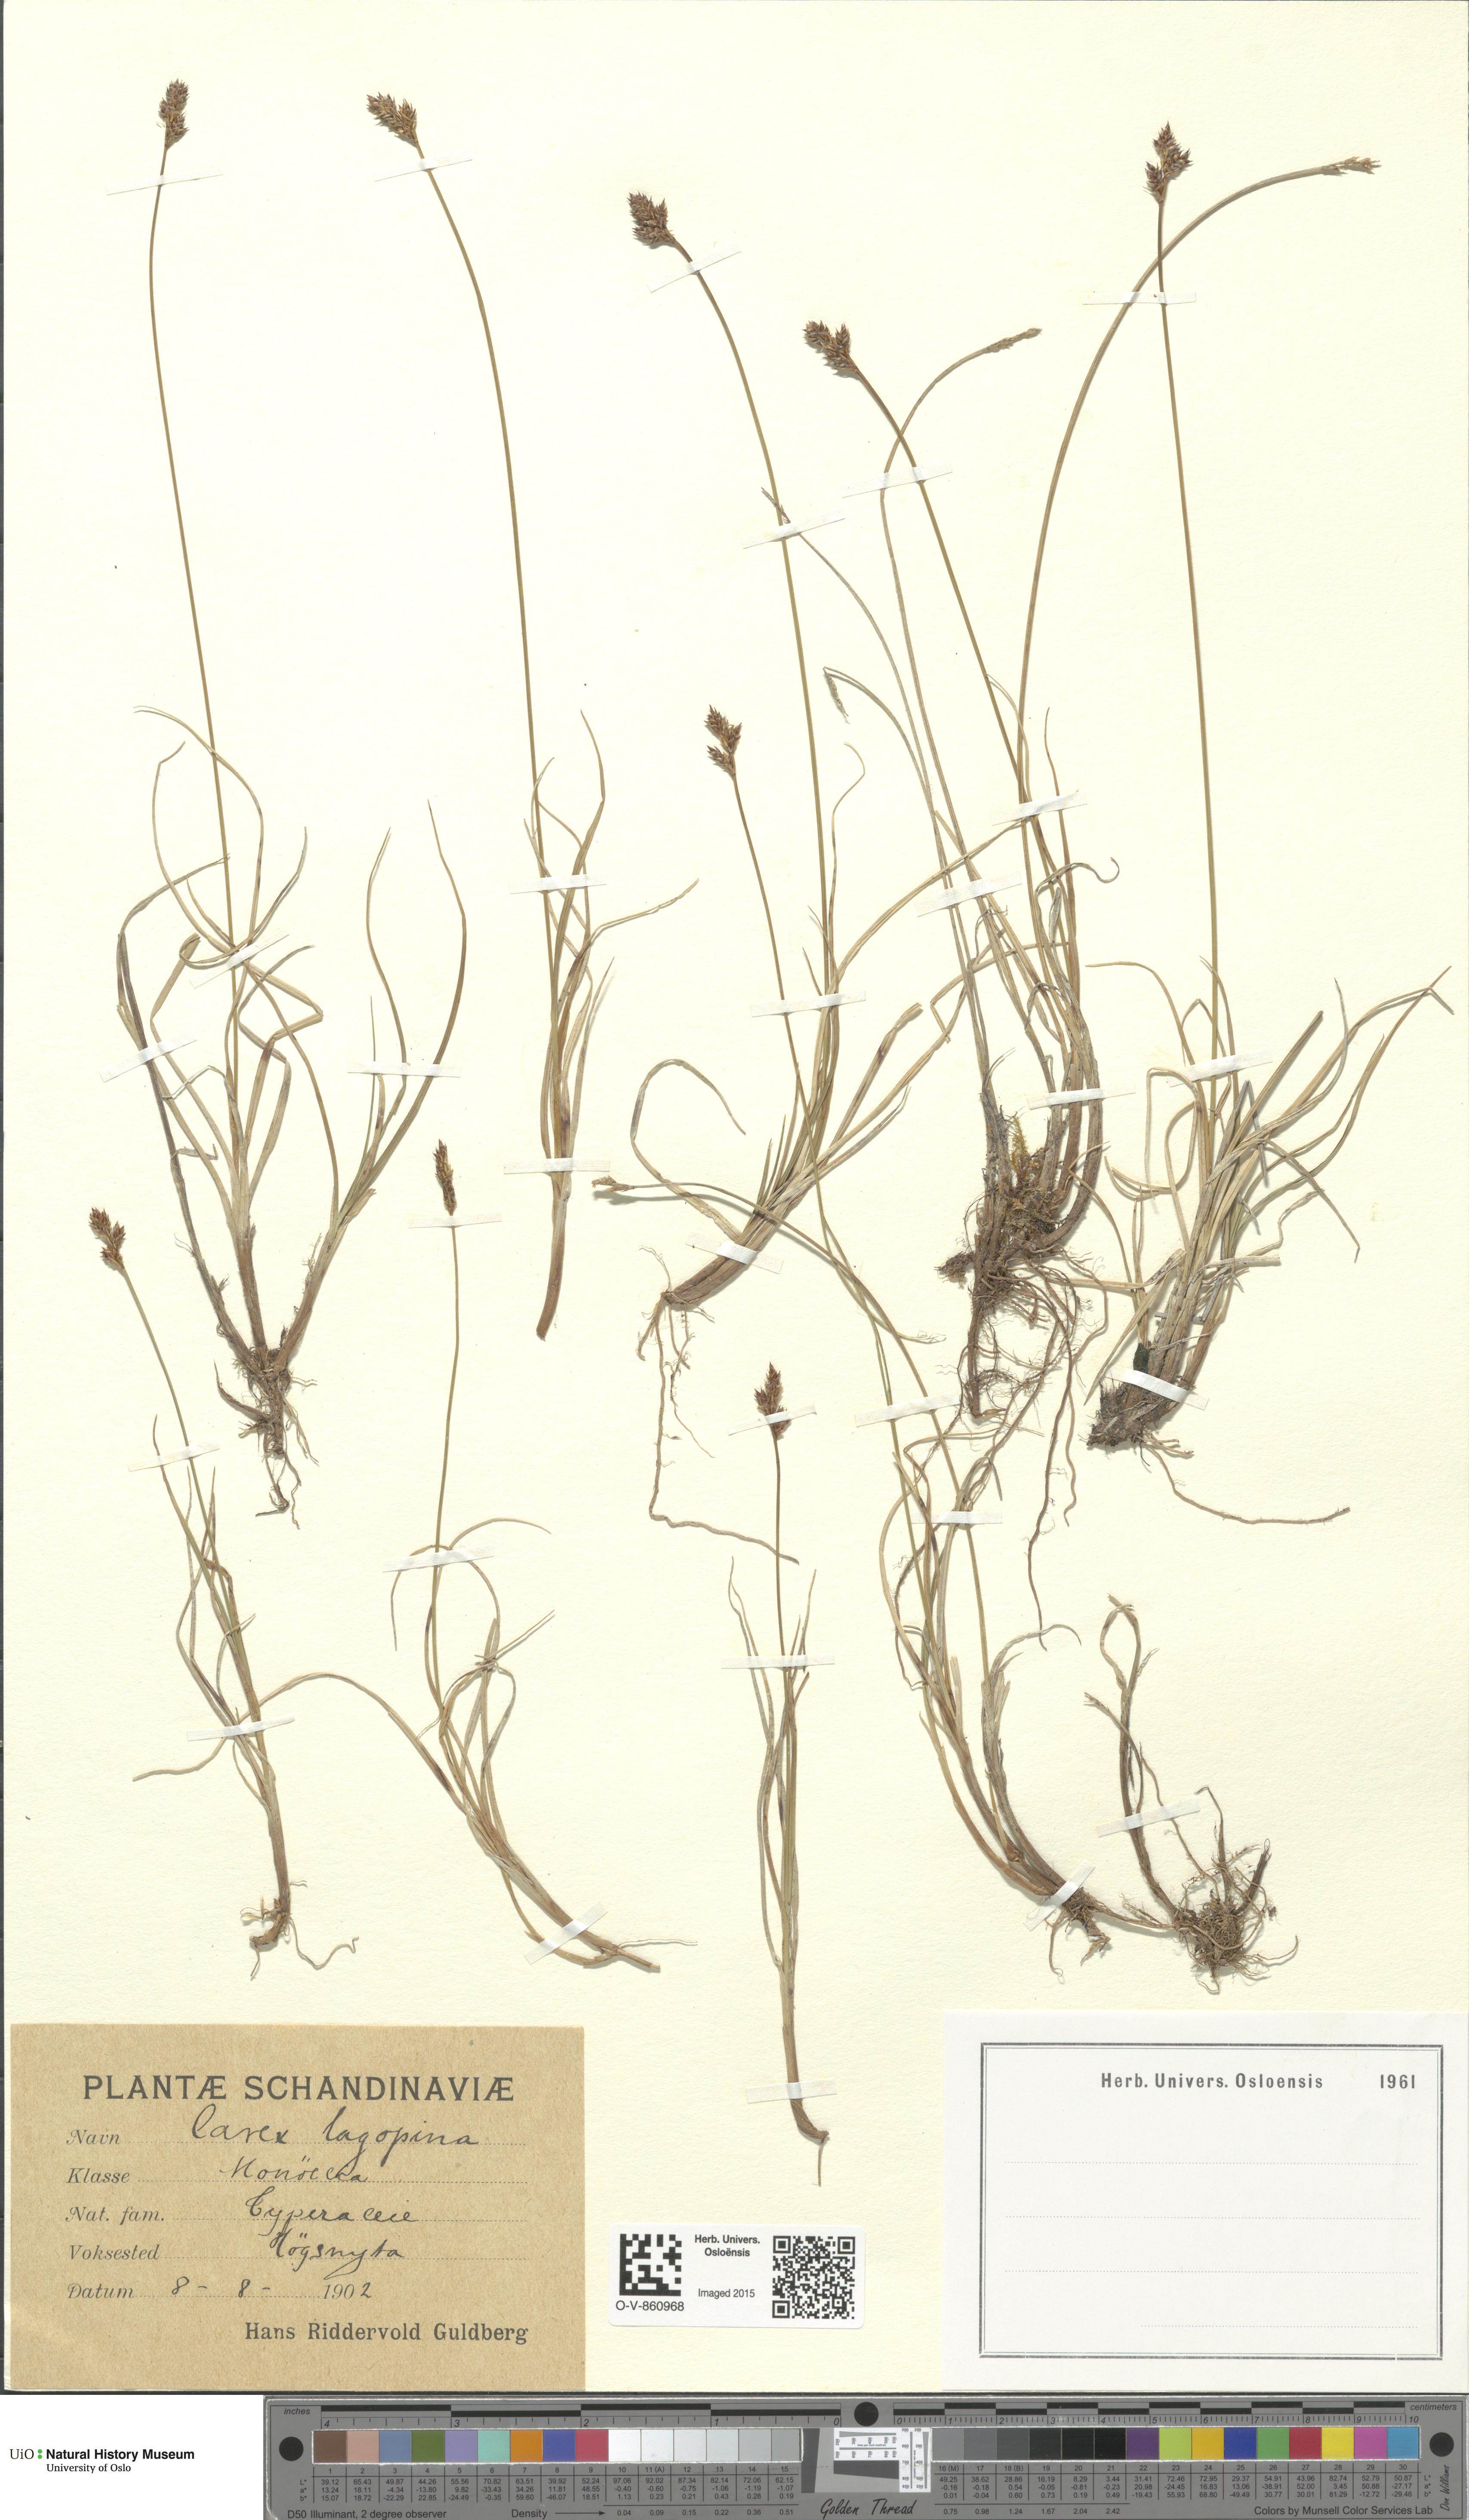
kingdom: Plantae
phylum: Tracheophyta
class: Liliopsida
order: Poales
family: Cyperaceae
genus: Carex
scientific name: Carex lachenalii
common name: Hare's-foot sedge
